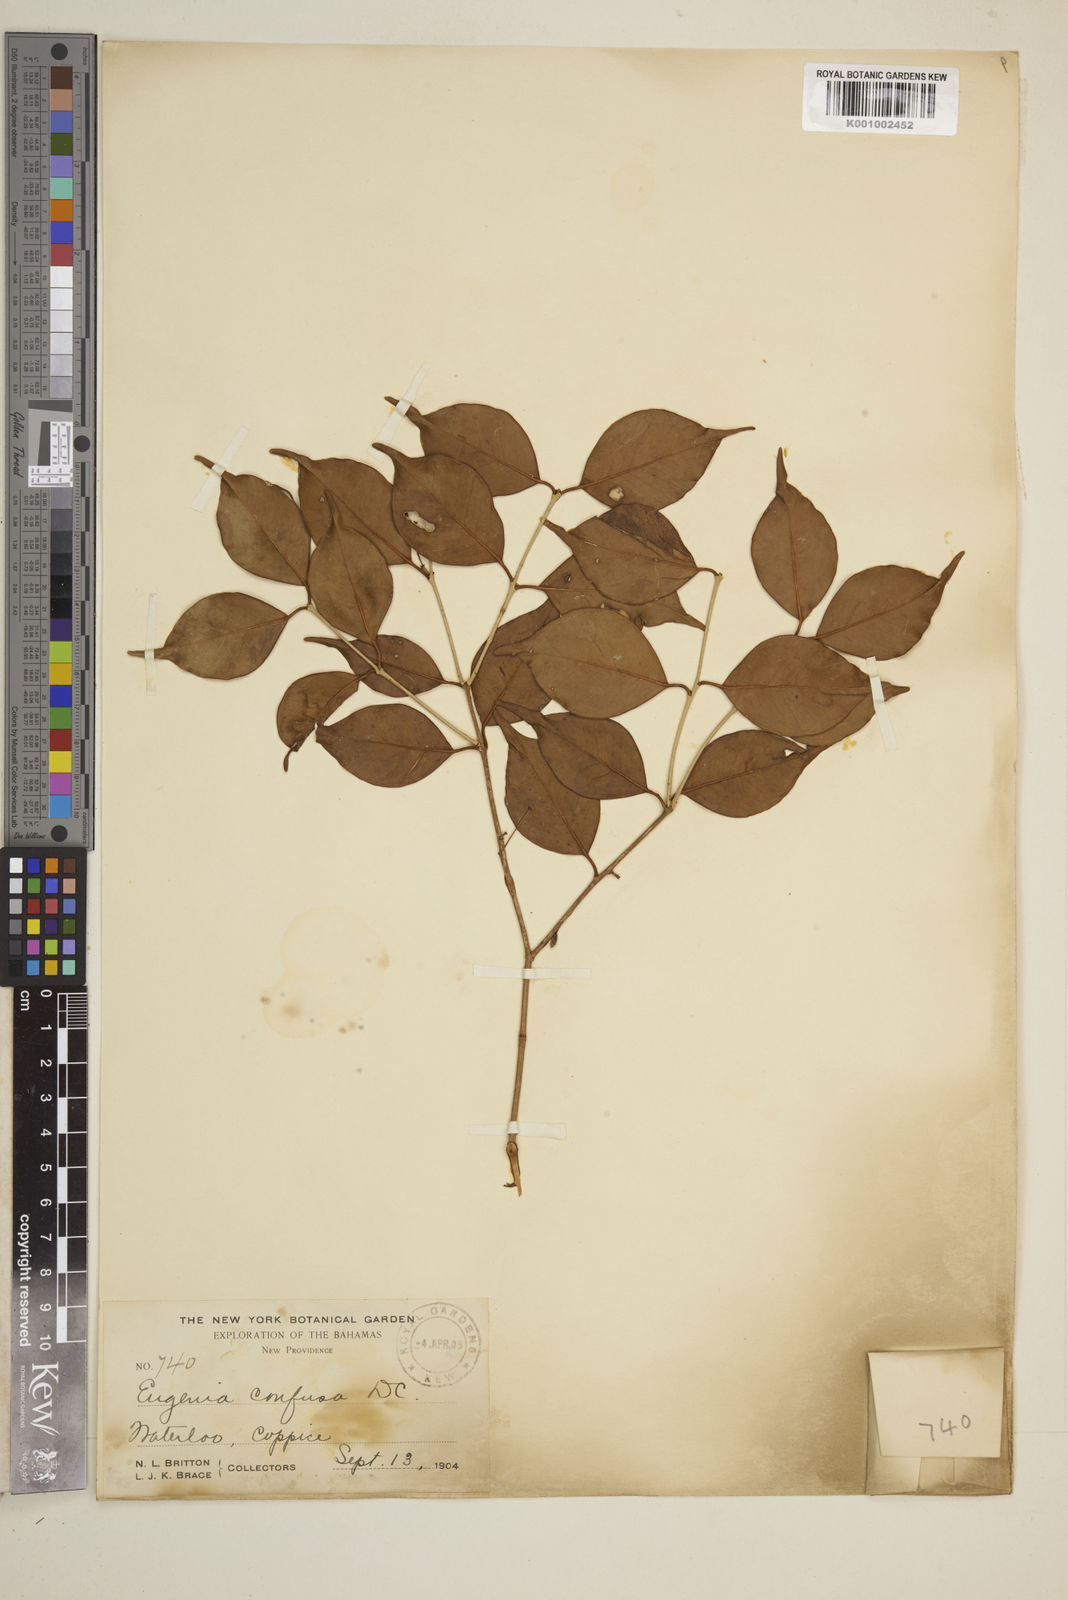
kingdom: Plantae
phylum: Tracheophyta
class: Magnoliopsida
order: Myrtales
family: Myrtaceae
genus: Eugenia
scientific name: Eugenia confusa
